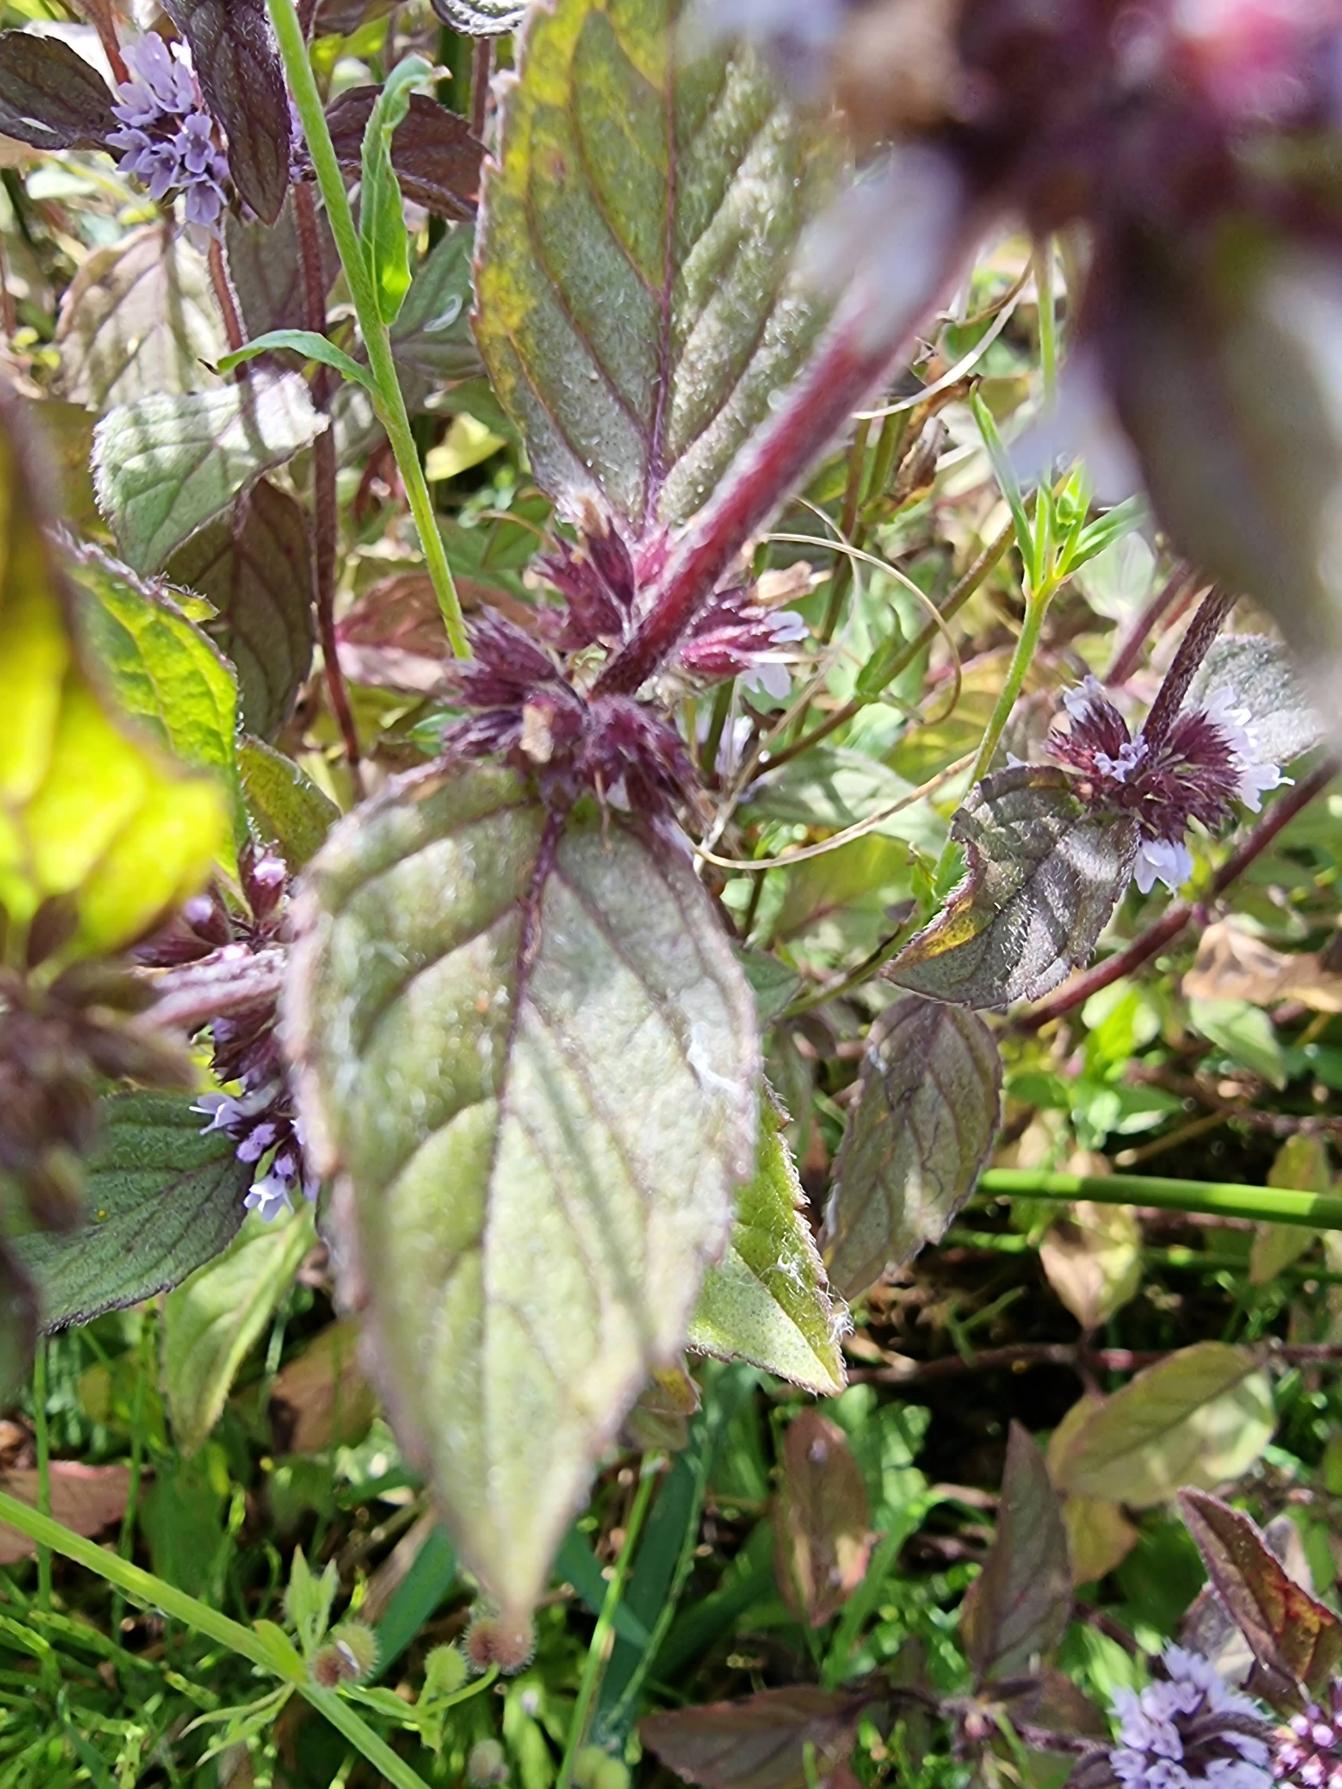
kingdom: Plantae
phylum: Tracheophyta
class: Magnoliopsida
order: Lamiales
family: Lamiaceae
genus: Mentha
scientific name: Mentha verticillata
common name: Krans-mynte
